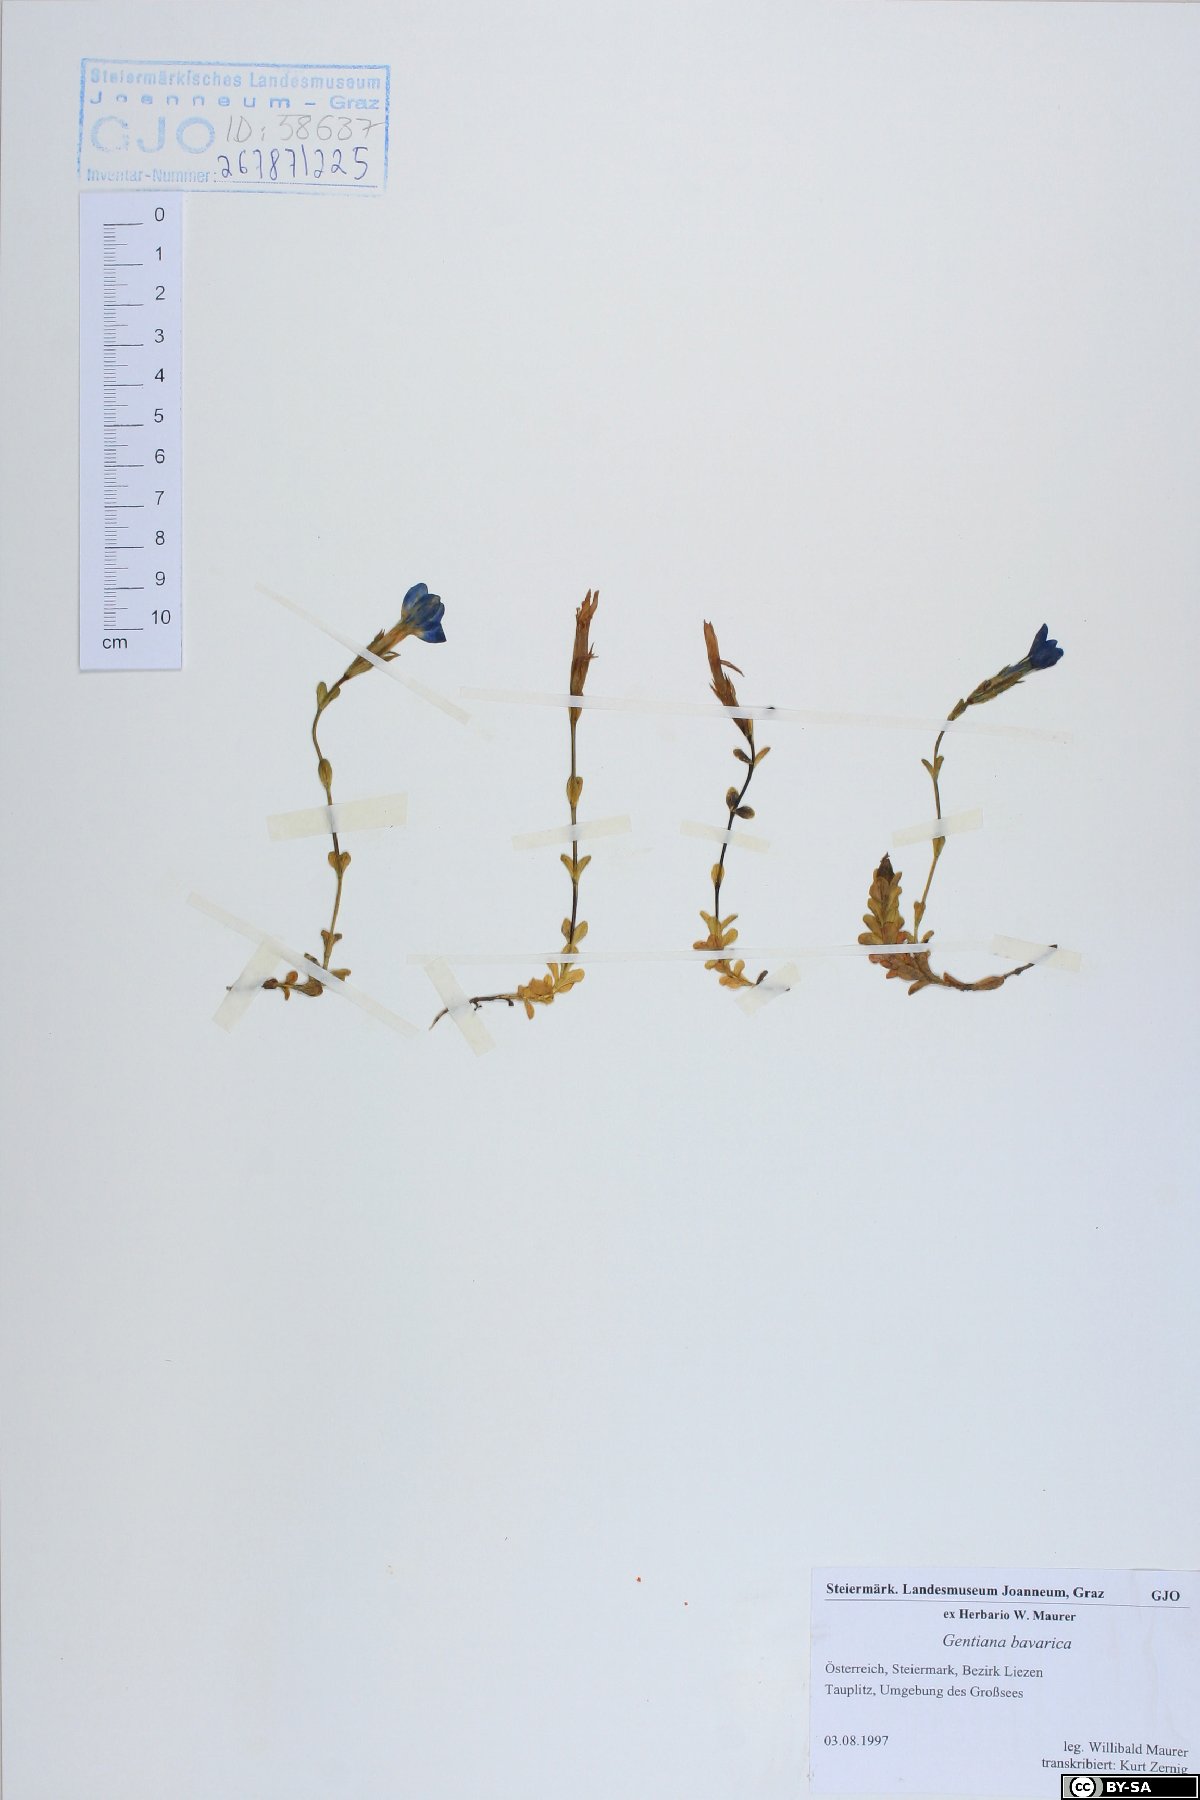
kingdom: Plantae
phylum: Tracheophyta
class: Magnoliopsida
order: Gentianales
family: Gentianaceae
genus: Gentiana
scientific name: Gentiana bavarica
